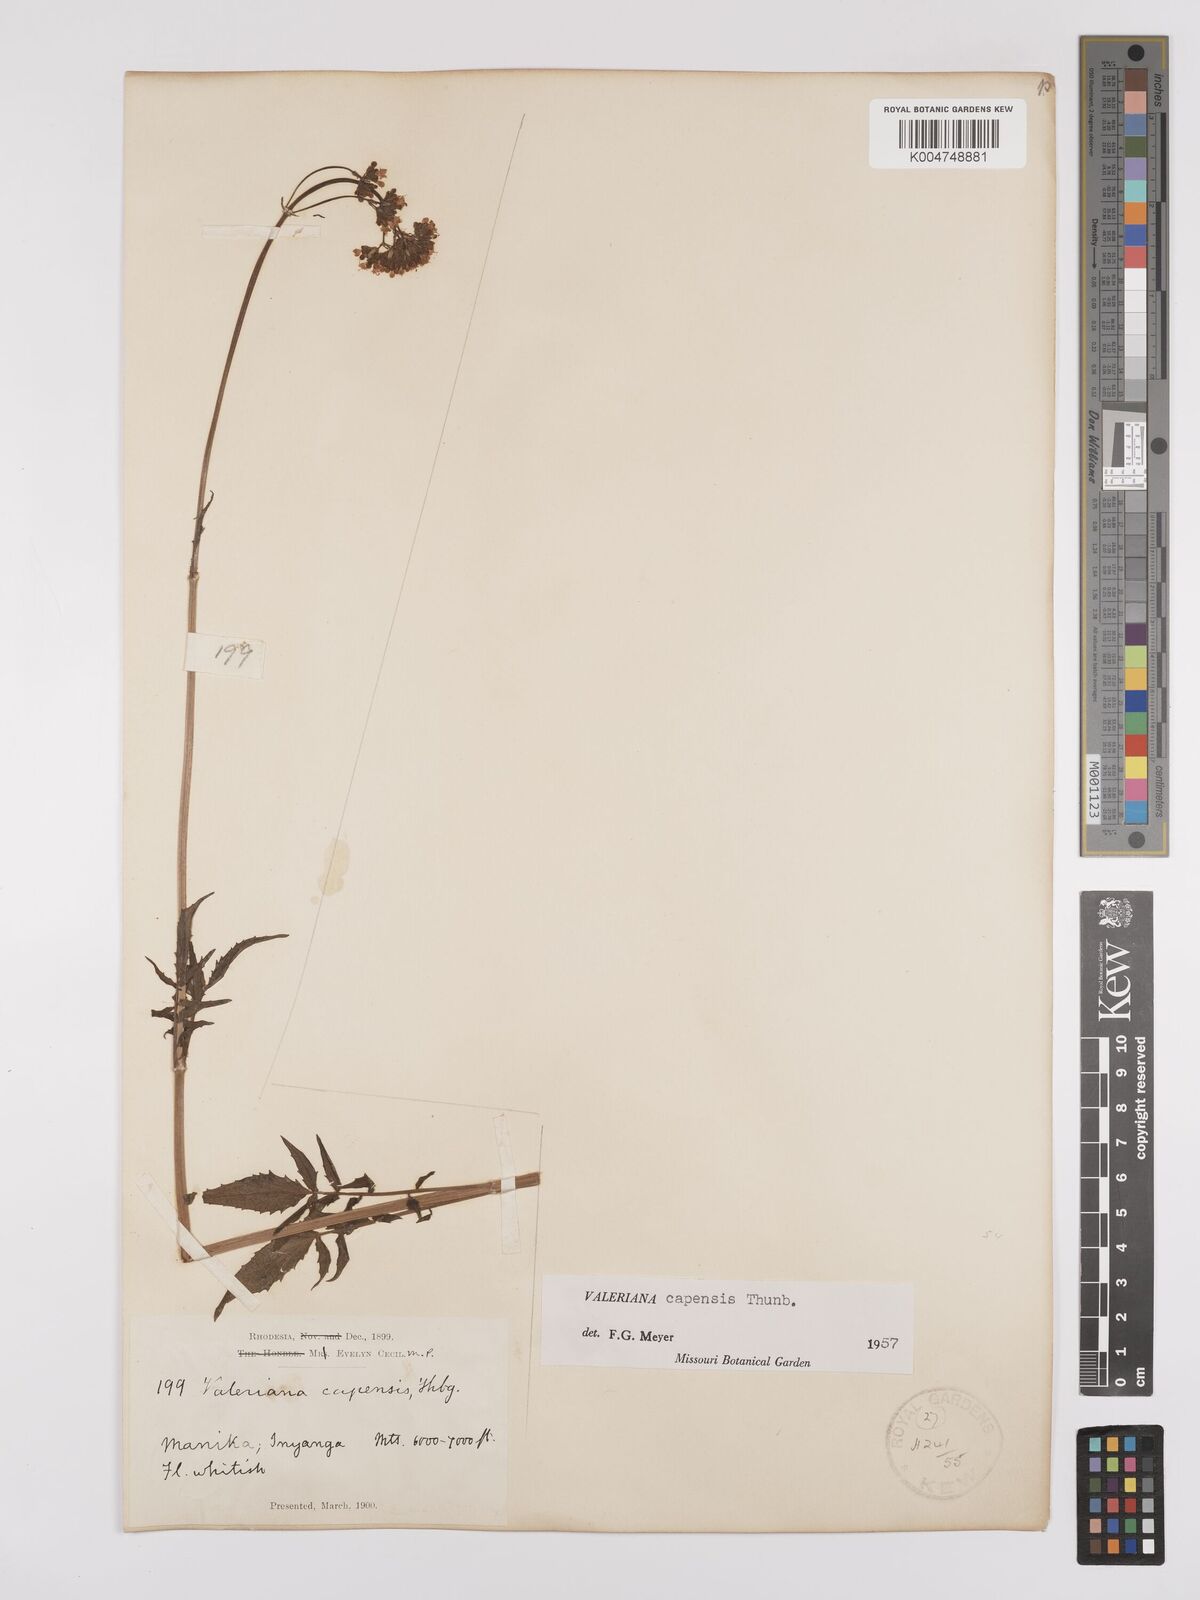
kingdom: Plantae
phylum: Tracheophyta
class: Magnoliopsida
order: Dipsacales
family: Caprifoliaceae
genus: Valeriana
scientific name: Valeriana capensis
